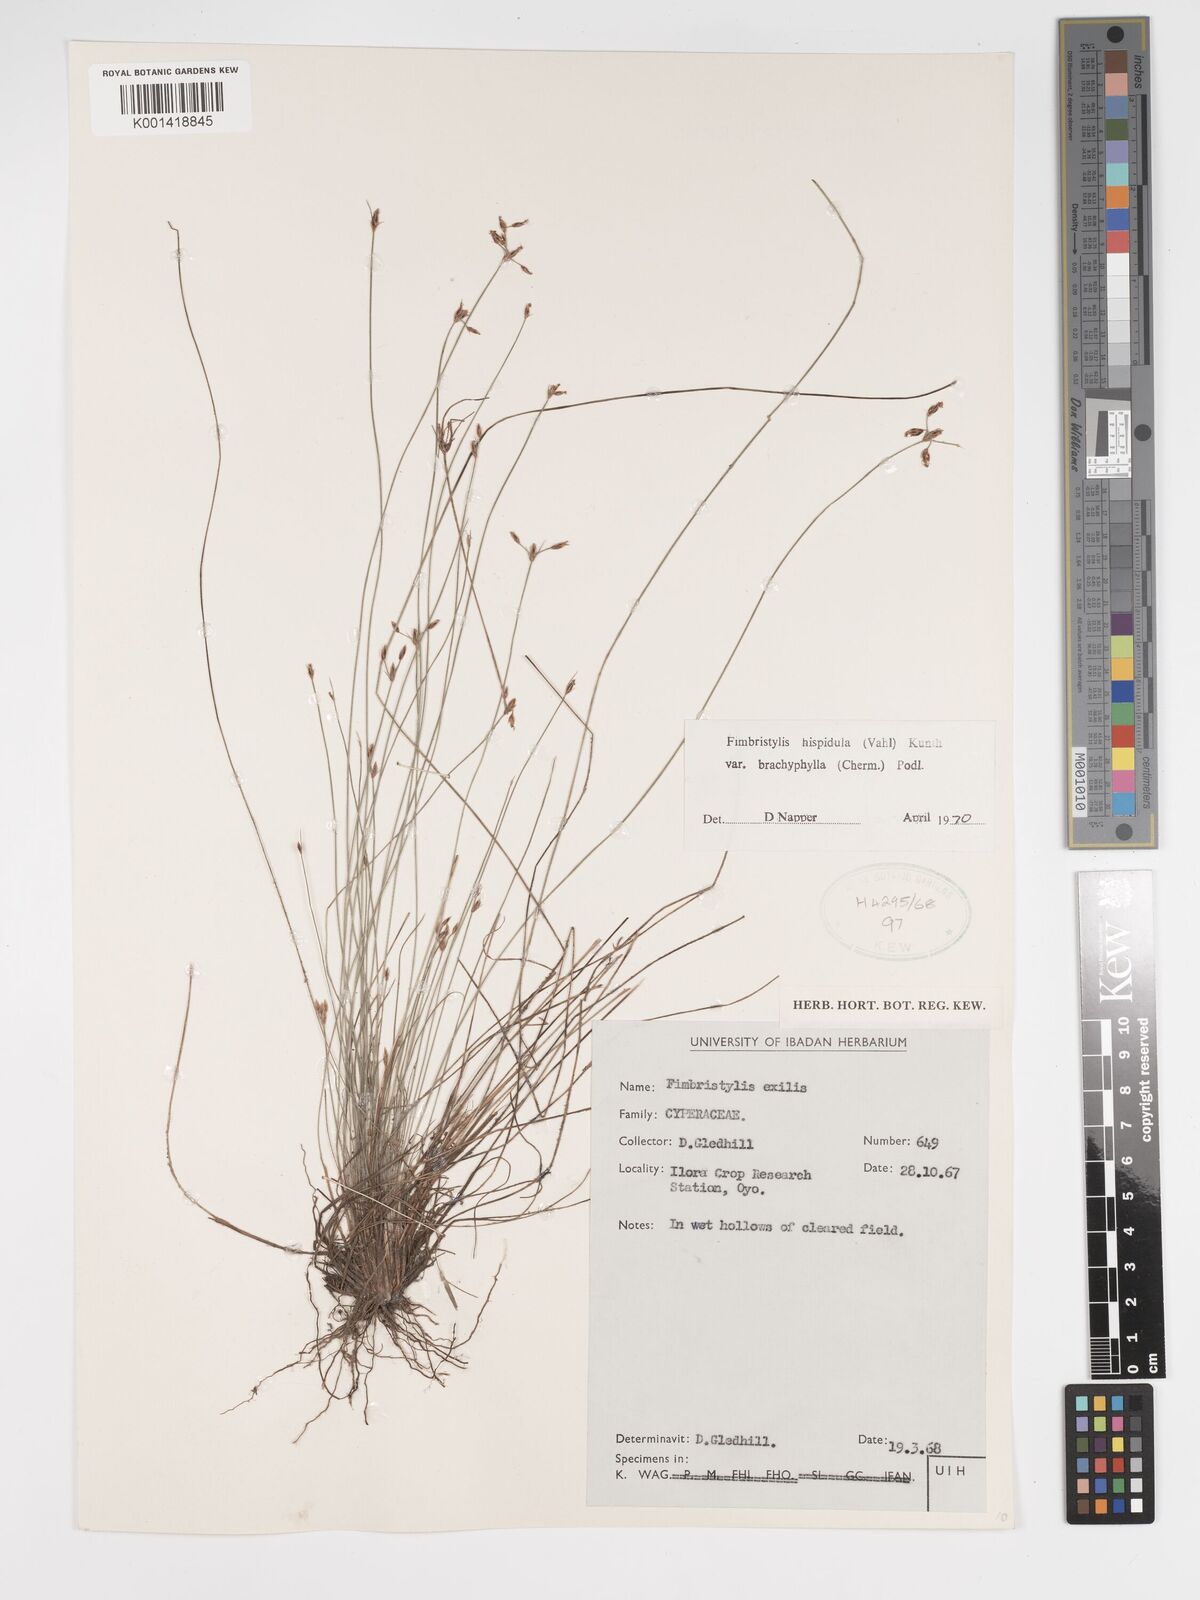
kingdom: Plantae
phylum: Tracheophyta
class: Liliopsida
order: Poales
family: Cyperaceae
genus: Bulbostylis
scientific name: Bulbostylis hispidula
